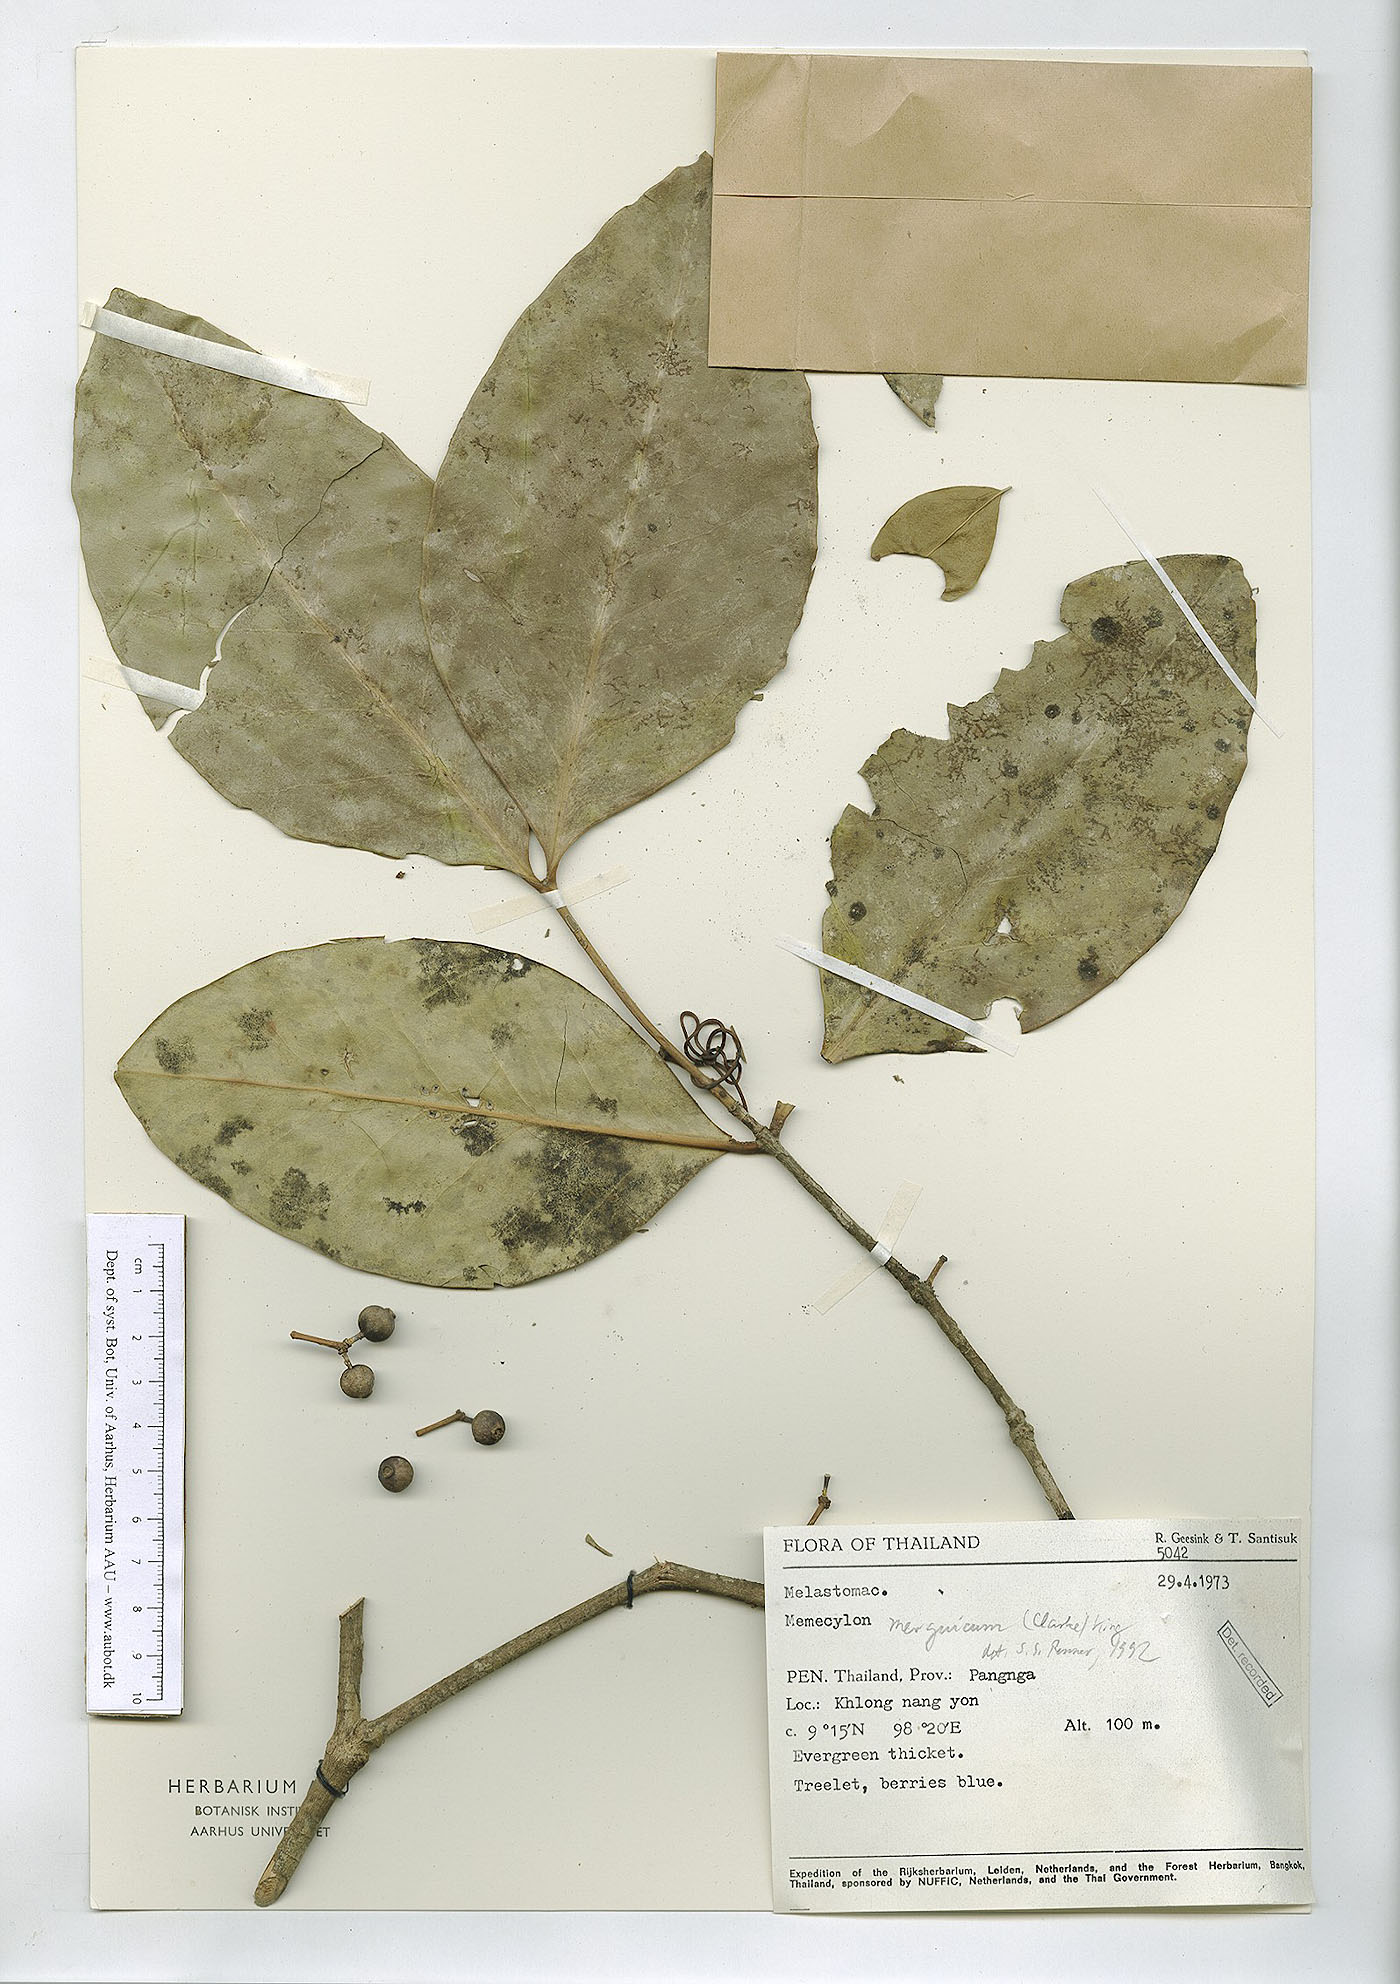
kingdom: Plantae
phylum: Tracheophyta
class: Magnoliopsida
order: Myrtales
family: Melastomataceae
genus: Memecylon
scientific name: Memecylon elegans
